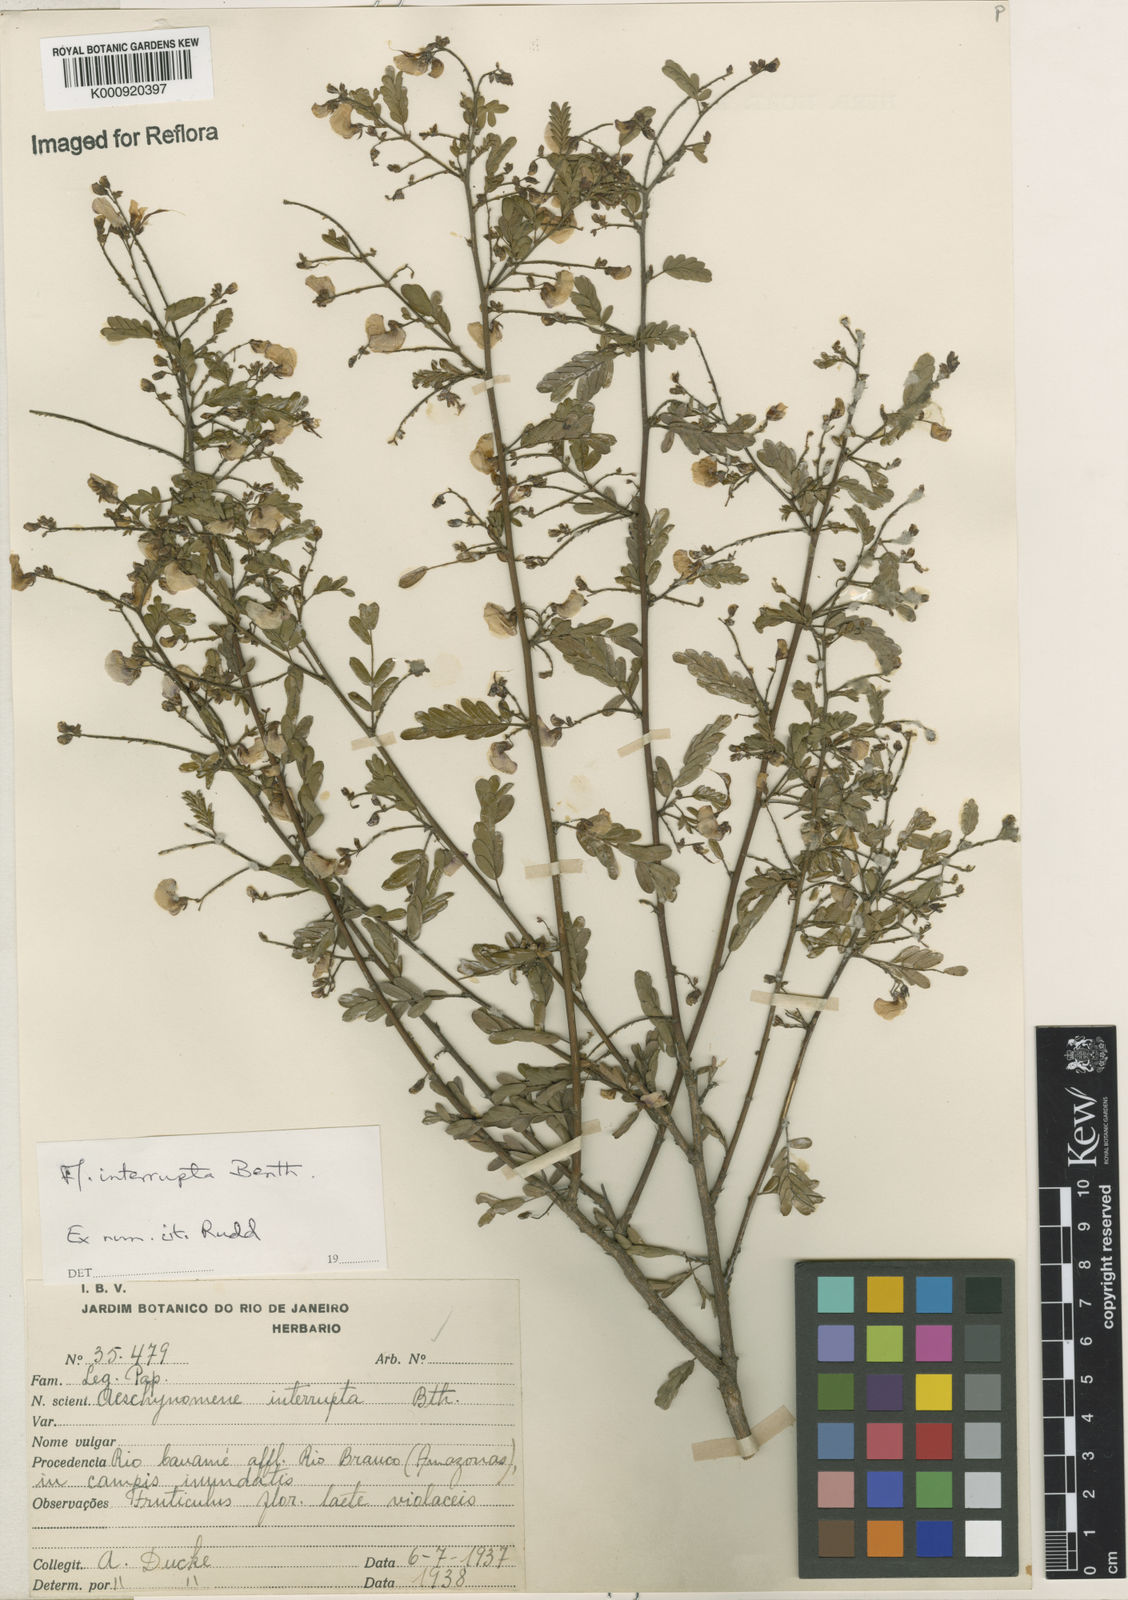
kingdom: Plantae
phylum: Tracheophyta
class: Magnoliopsida
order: Fabales
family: Fabaceae
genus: Ctenodon
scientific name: Ctenodon interruptus
